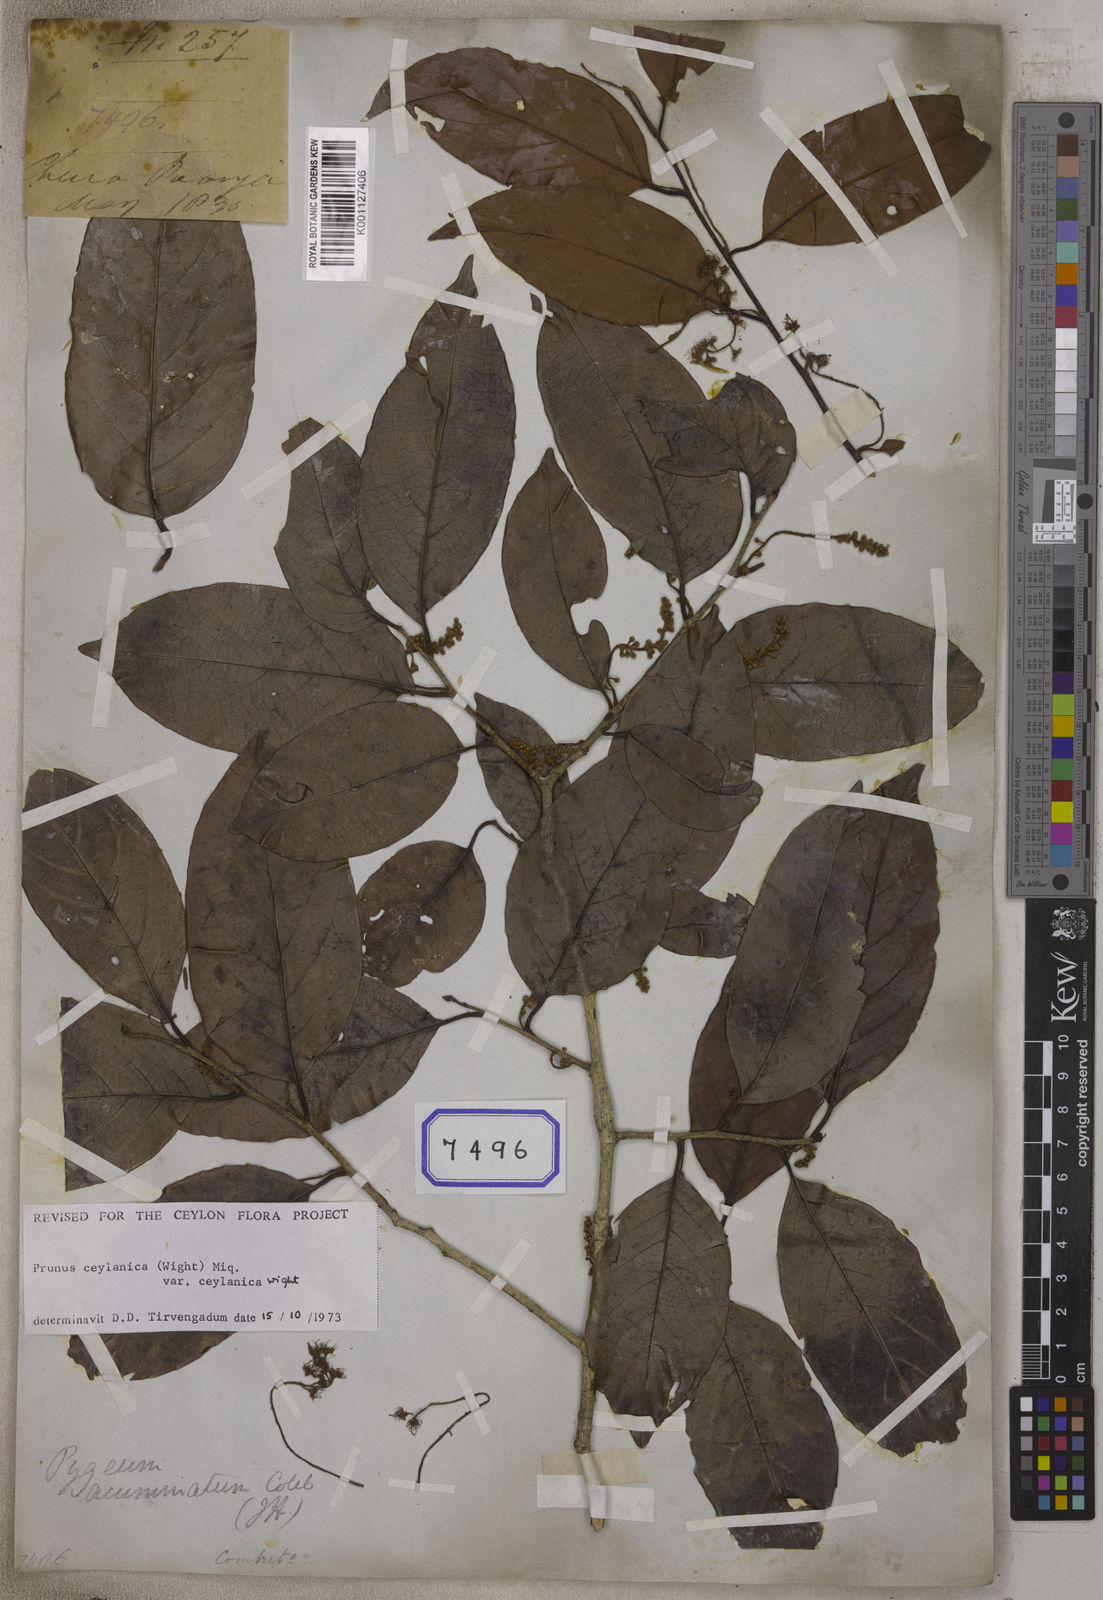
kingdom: Plantae
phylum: Tracheophyta
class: Magnoliopsida
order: Malpighiales
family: Chrysobalanaceae
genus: Chrysobalanus
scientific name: Chrysobalanus
